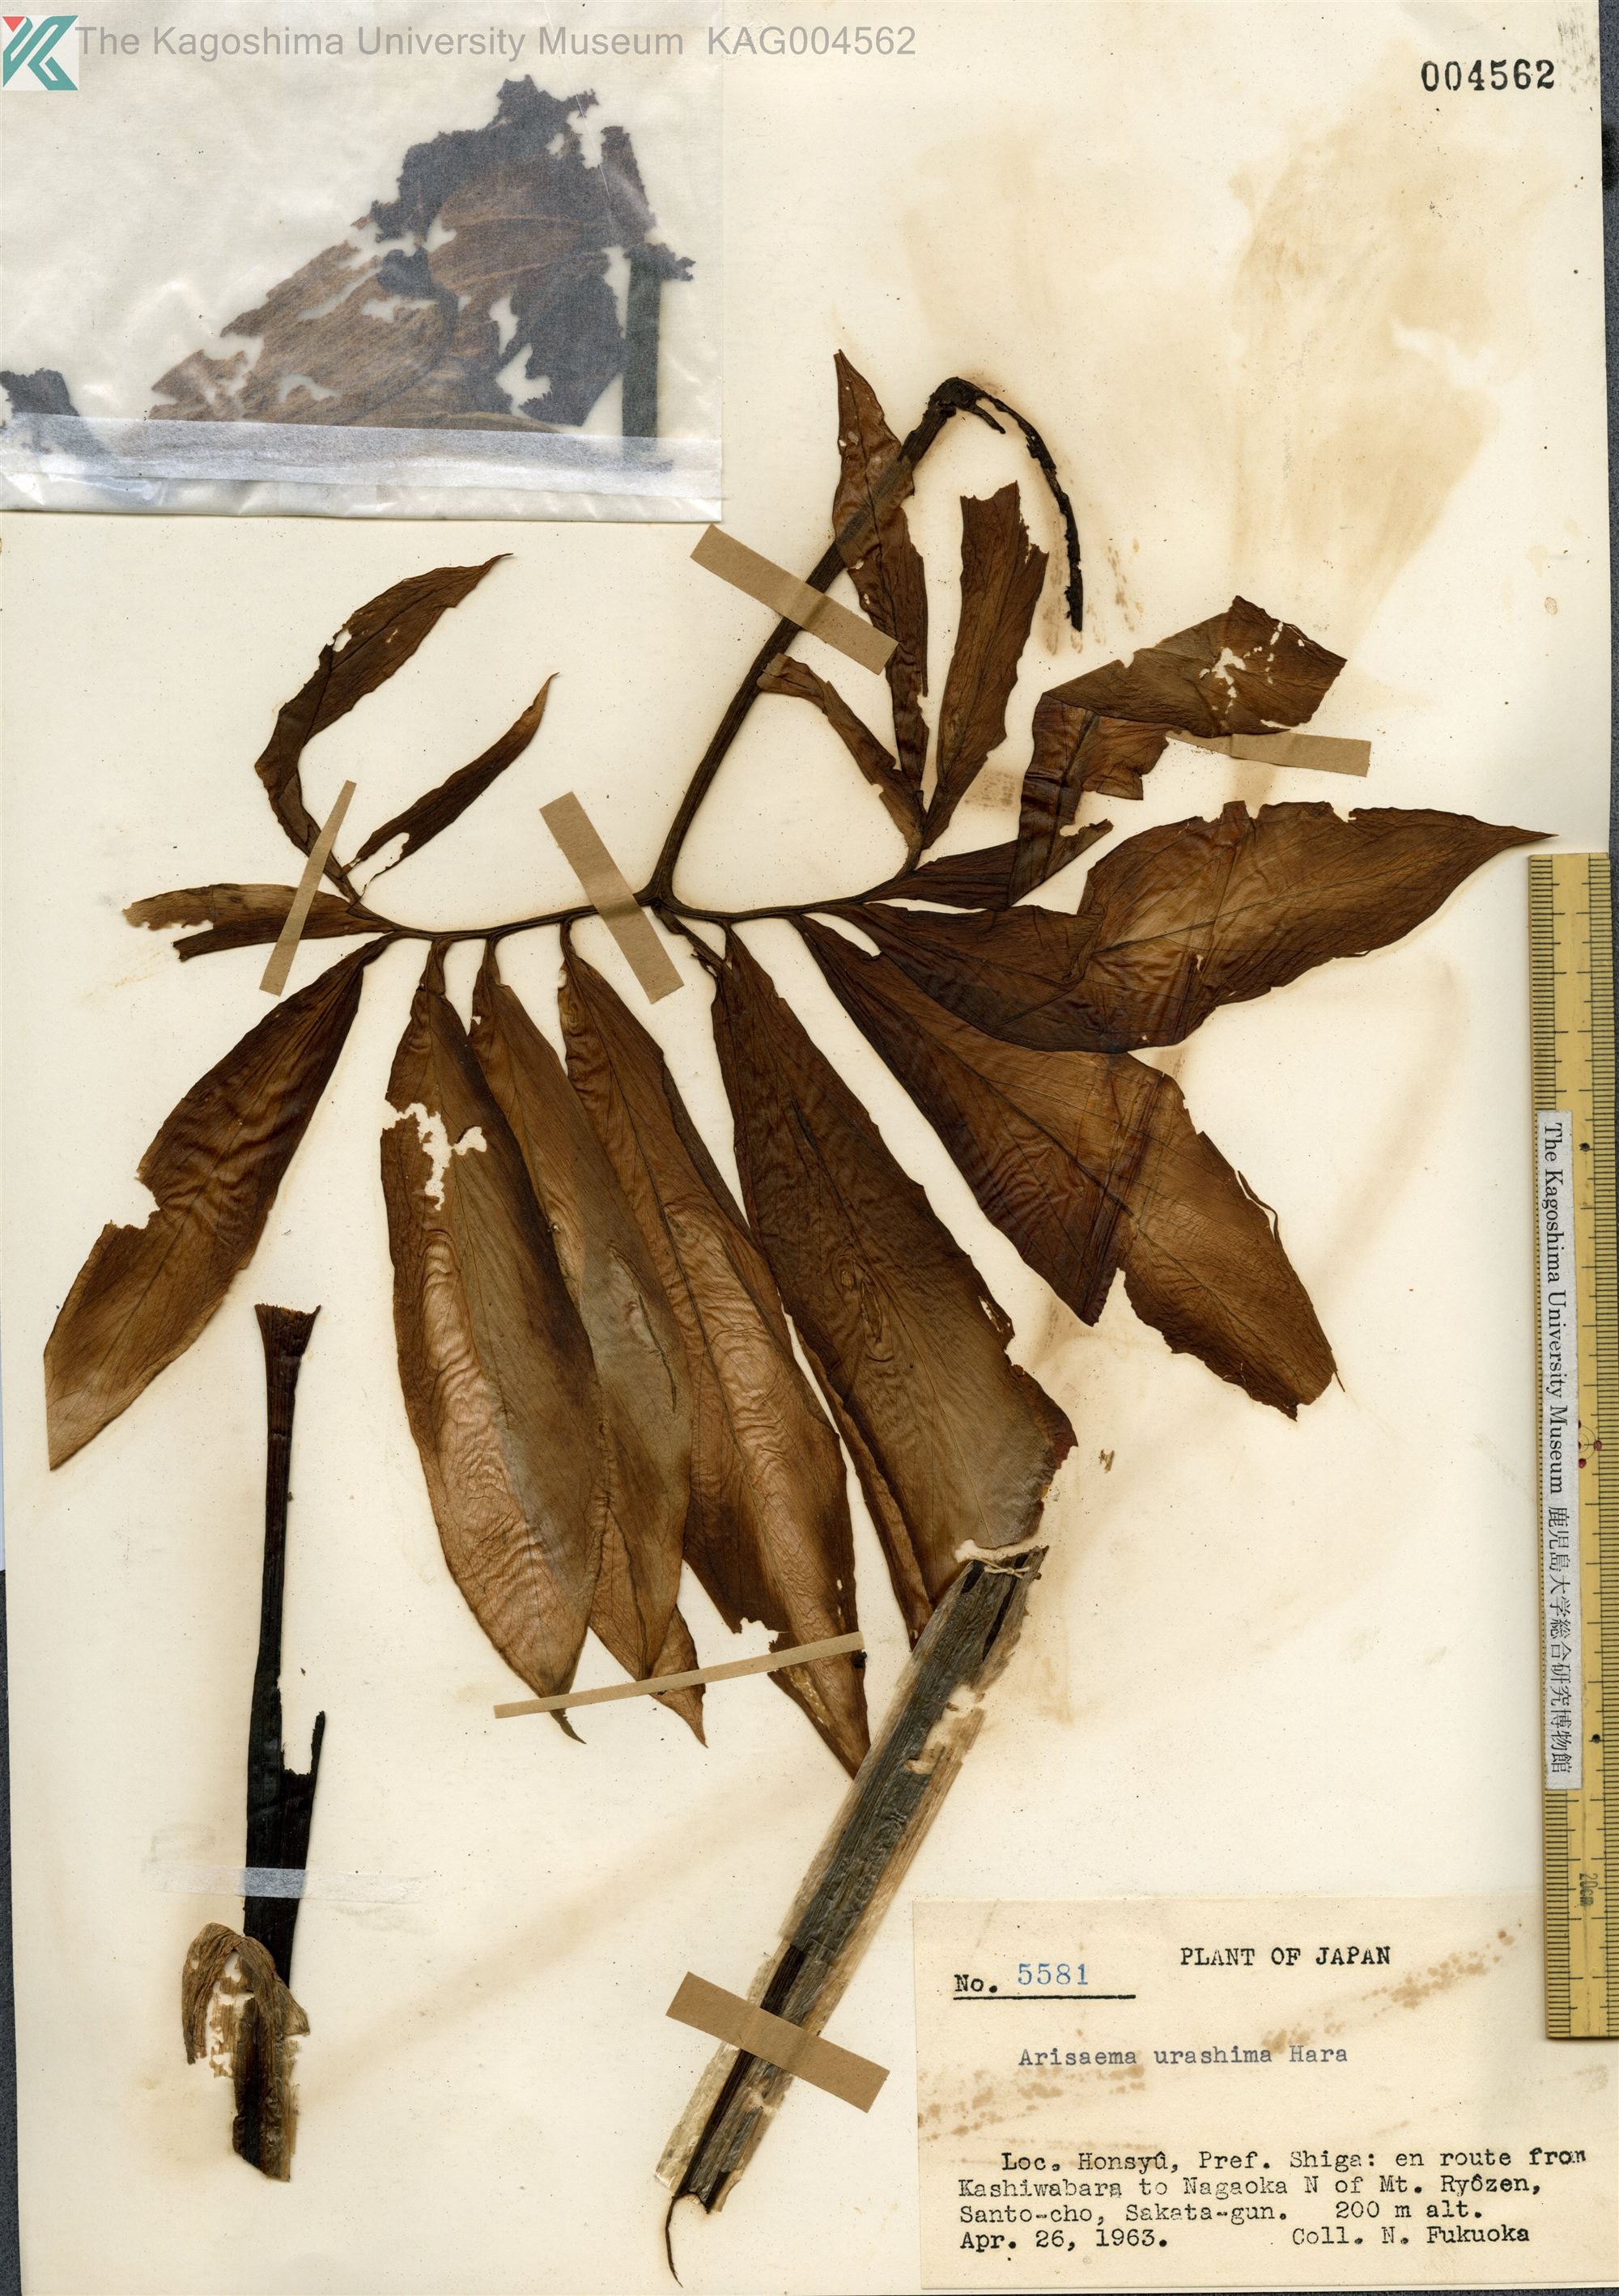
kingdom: Plantae
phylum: Tracheophyta
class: Liliopsida
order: Alismatales
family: Araceae
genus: Arisaema
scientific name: Arisaema thunbergii
